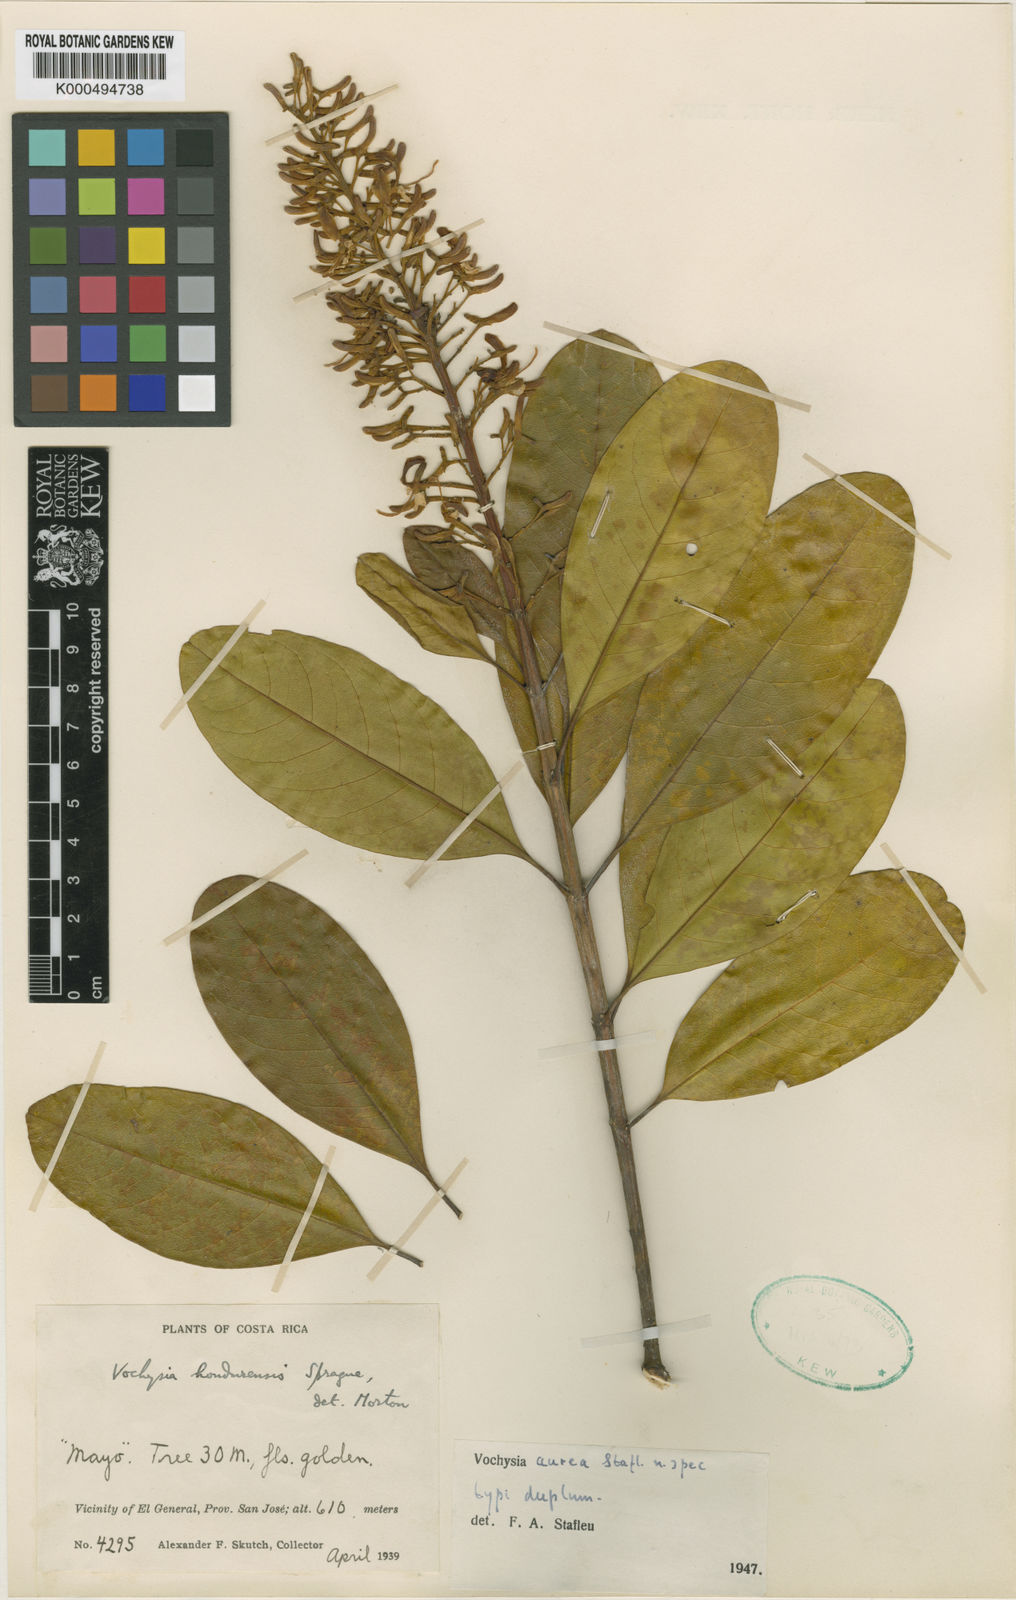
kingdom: Plantae
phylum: Tracheophyta
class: Magnoliopsida
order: Myrtales
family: Vochysiaceae
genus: Vochysia
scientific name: Vochysia guatemalensis
